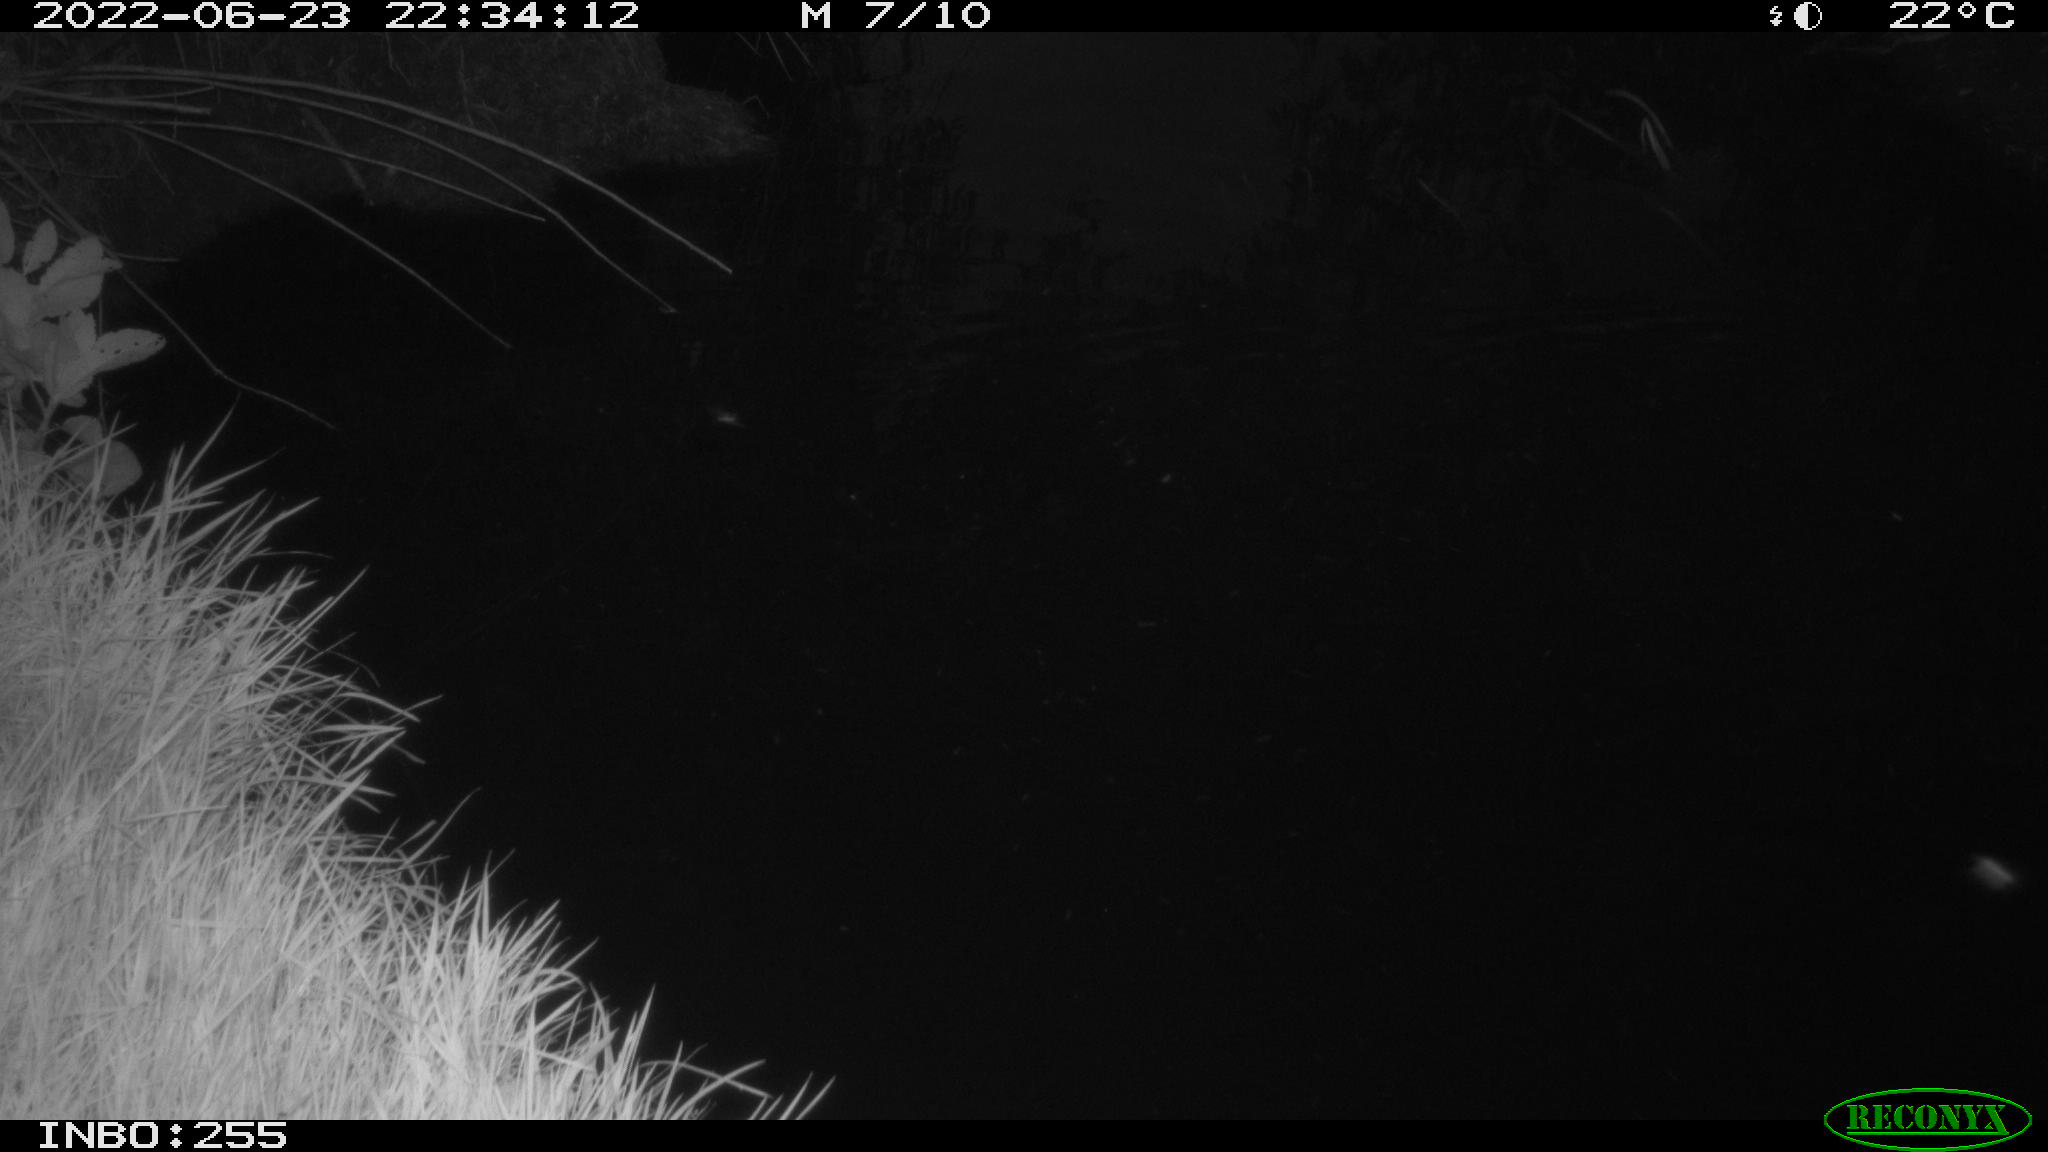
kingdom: Animalia
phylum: Chordata
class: Mammalia
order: Rodentia
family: Muridae
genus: Rattus
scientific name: Rattus norvegicus
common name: Brown rat
